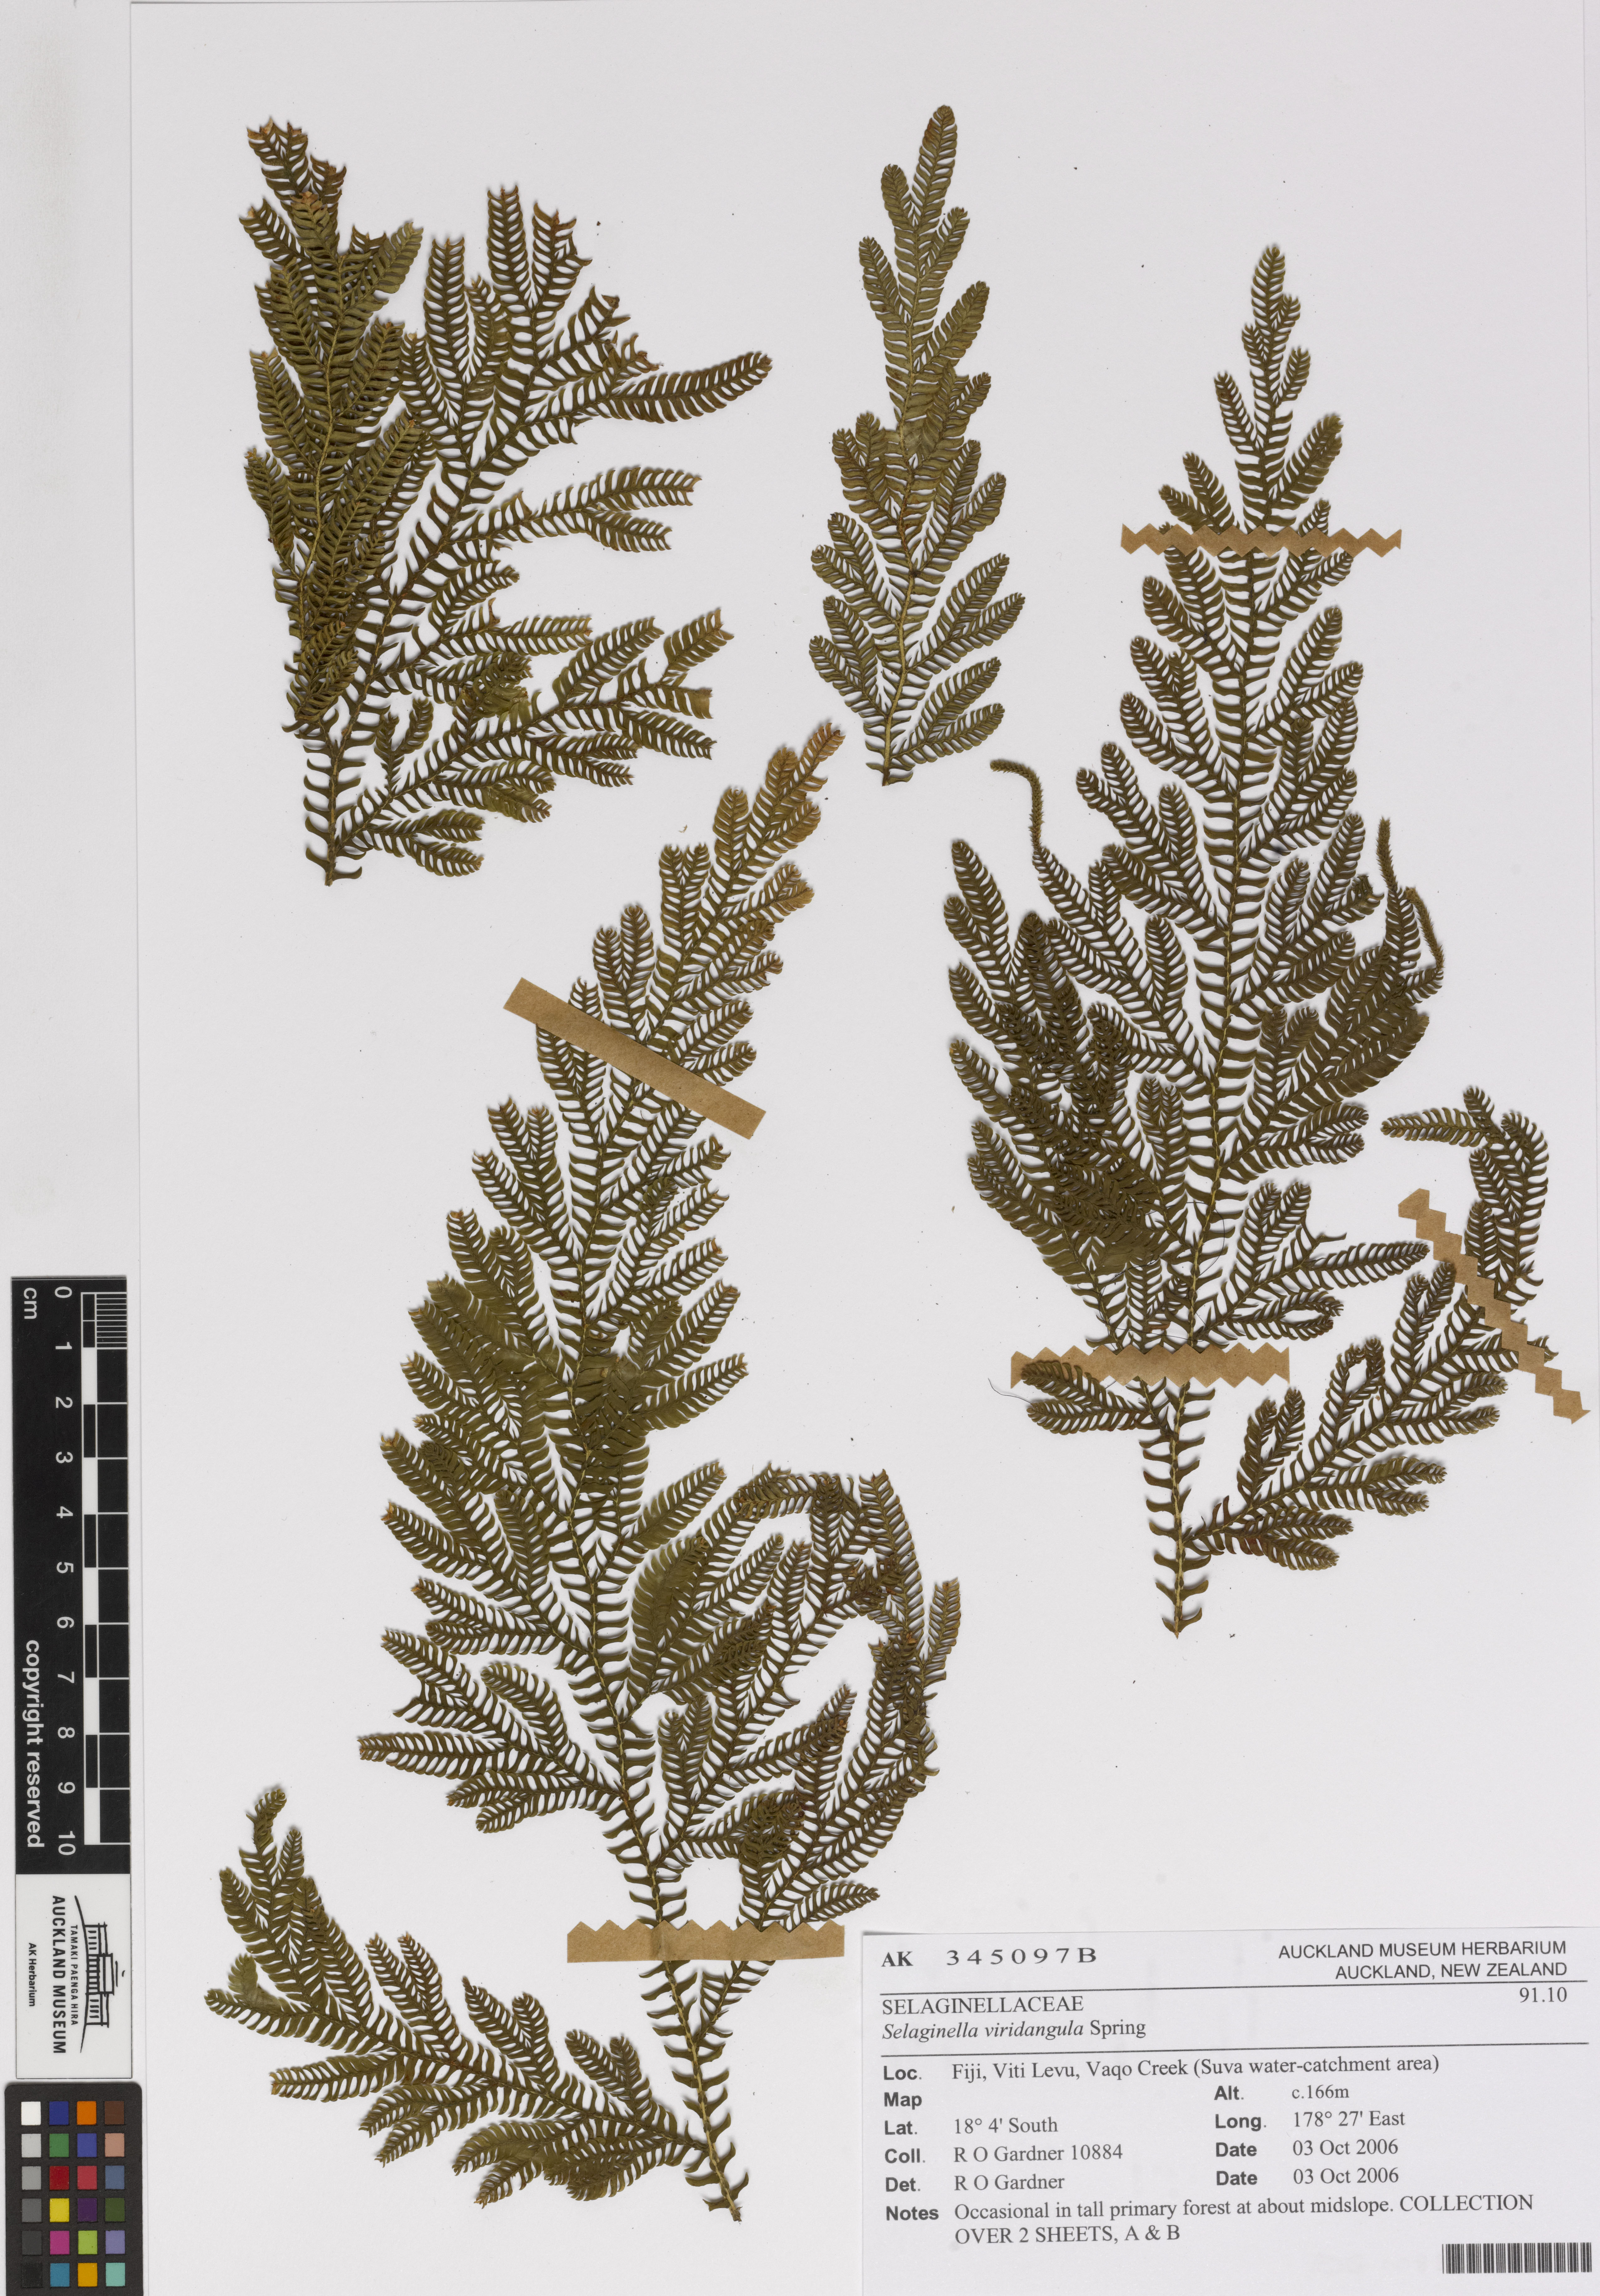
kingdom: Plantae
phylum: Tracheophyta
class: Lycopodiopsida
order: Selaginellales
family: Selaginellaceae
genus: Selaginella
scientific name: Selaginella viridangula
